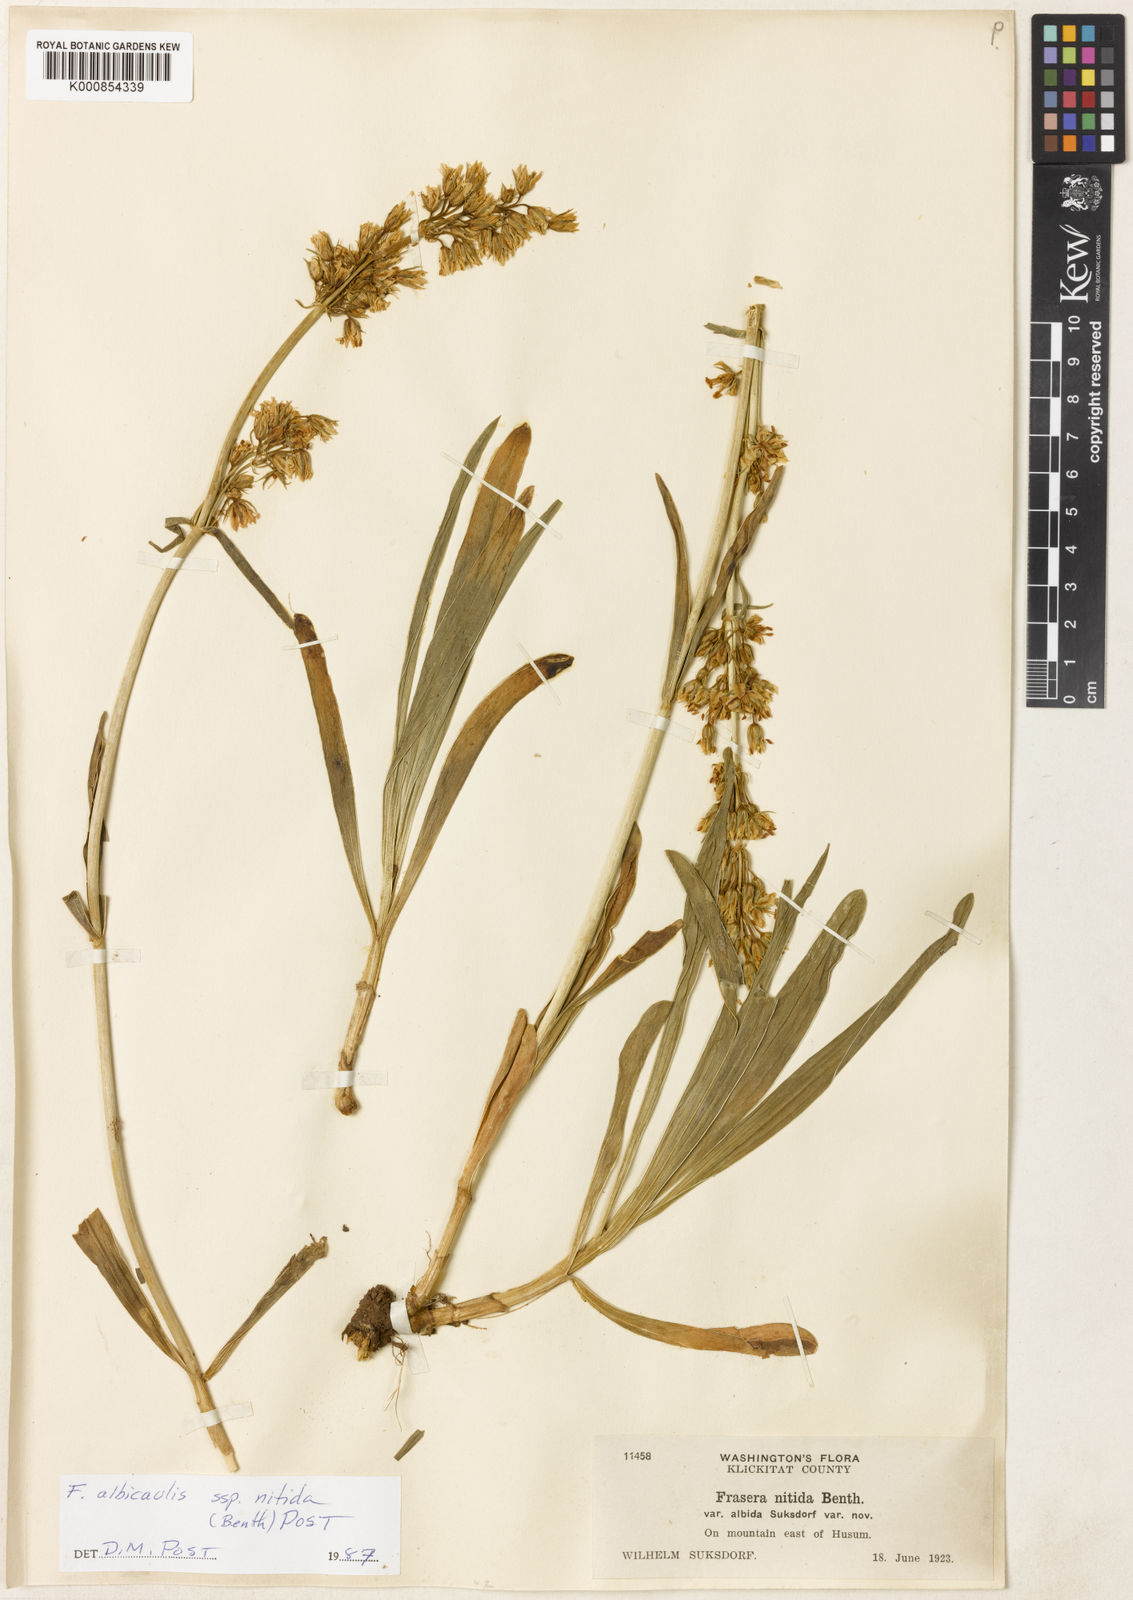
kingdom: Plantae
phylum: Tracheophyta
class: Magnoliopsida
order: Gentianales
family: Gentianaceae
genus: Frasera
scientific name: Frasera albicaulis
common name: Cusick's frasera
